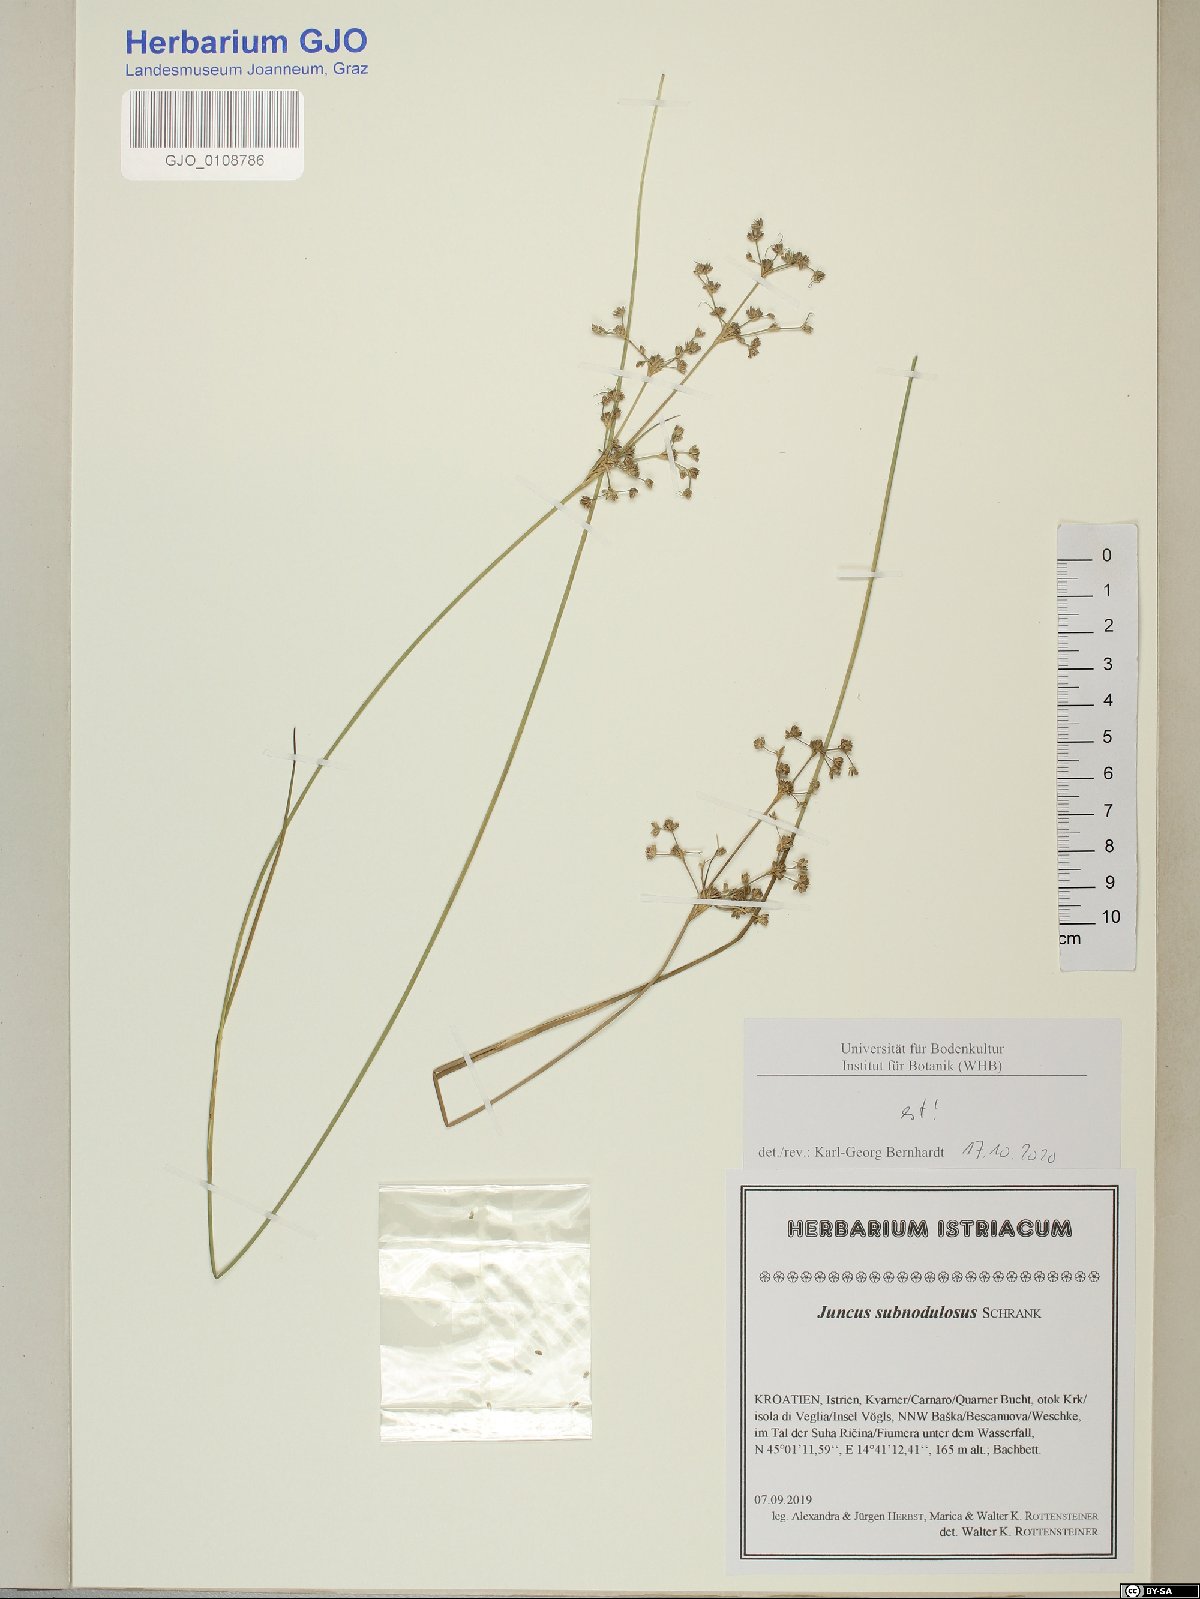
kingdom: Plantae
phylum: Tracheophyta
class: Liliopsida
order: Poales
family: Juncaceae
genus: Juncus
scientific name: Juncus subnodulosus
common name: Blunt-flowered rush
